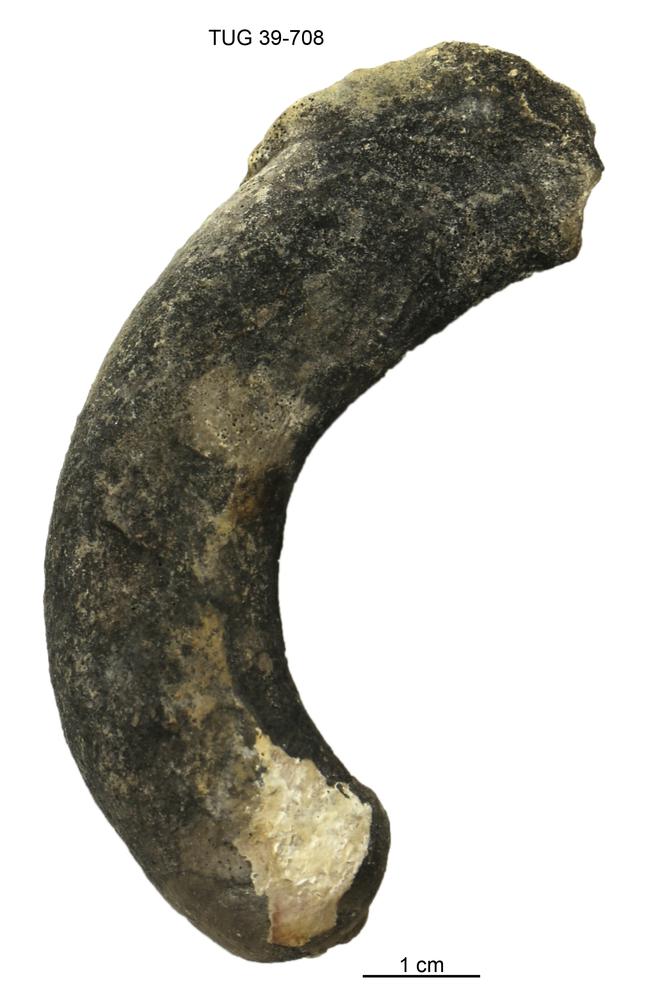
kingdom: Animalia
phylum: Mollusca
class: Cephalopoda
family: Trocholitidae
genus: Discoceras
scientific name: Discoceras
